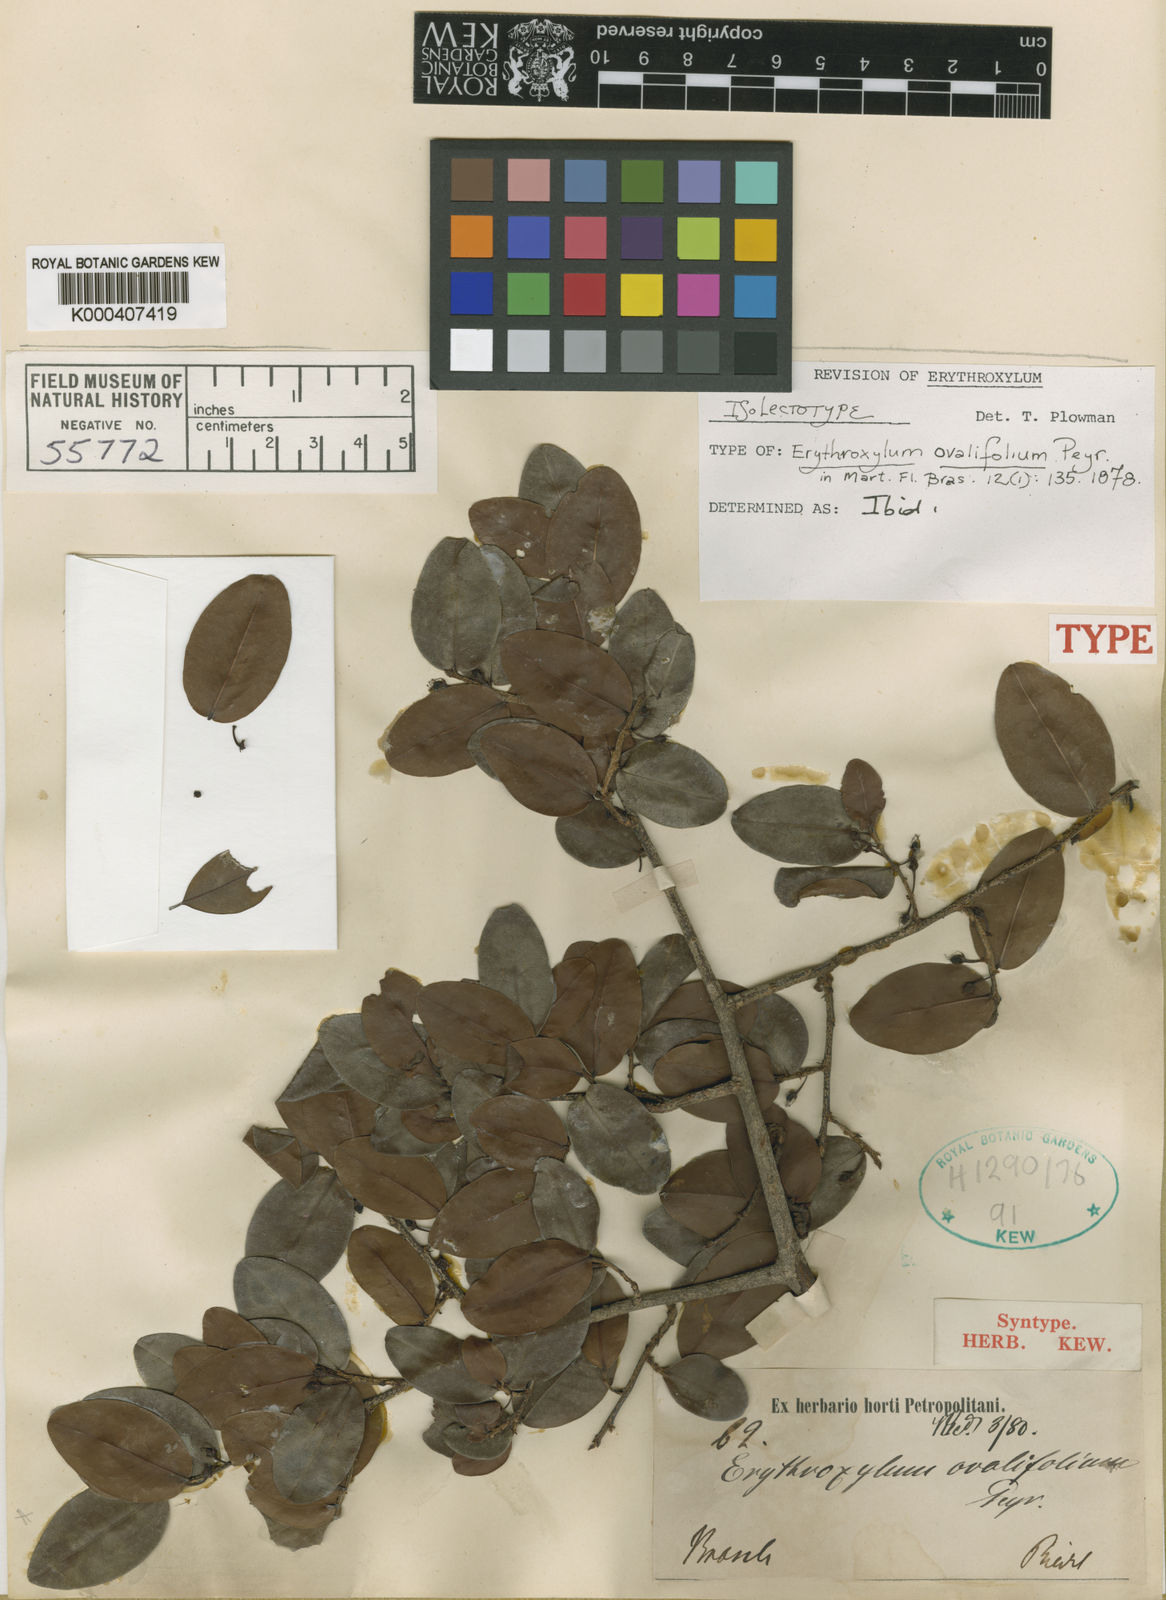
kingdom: Plantae
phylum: Tracheophyta
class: Magnoliopsida
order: Malpighiales
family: Erythroxylaceae
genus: Erythroxylum
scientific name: Erythroxylum ovalifolium
